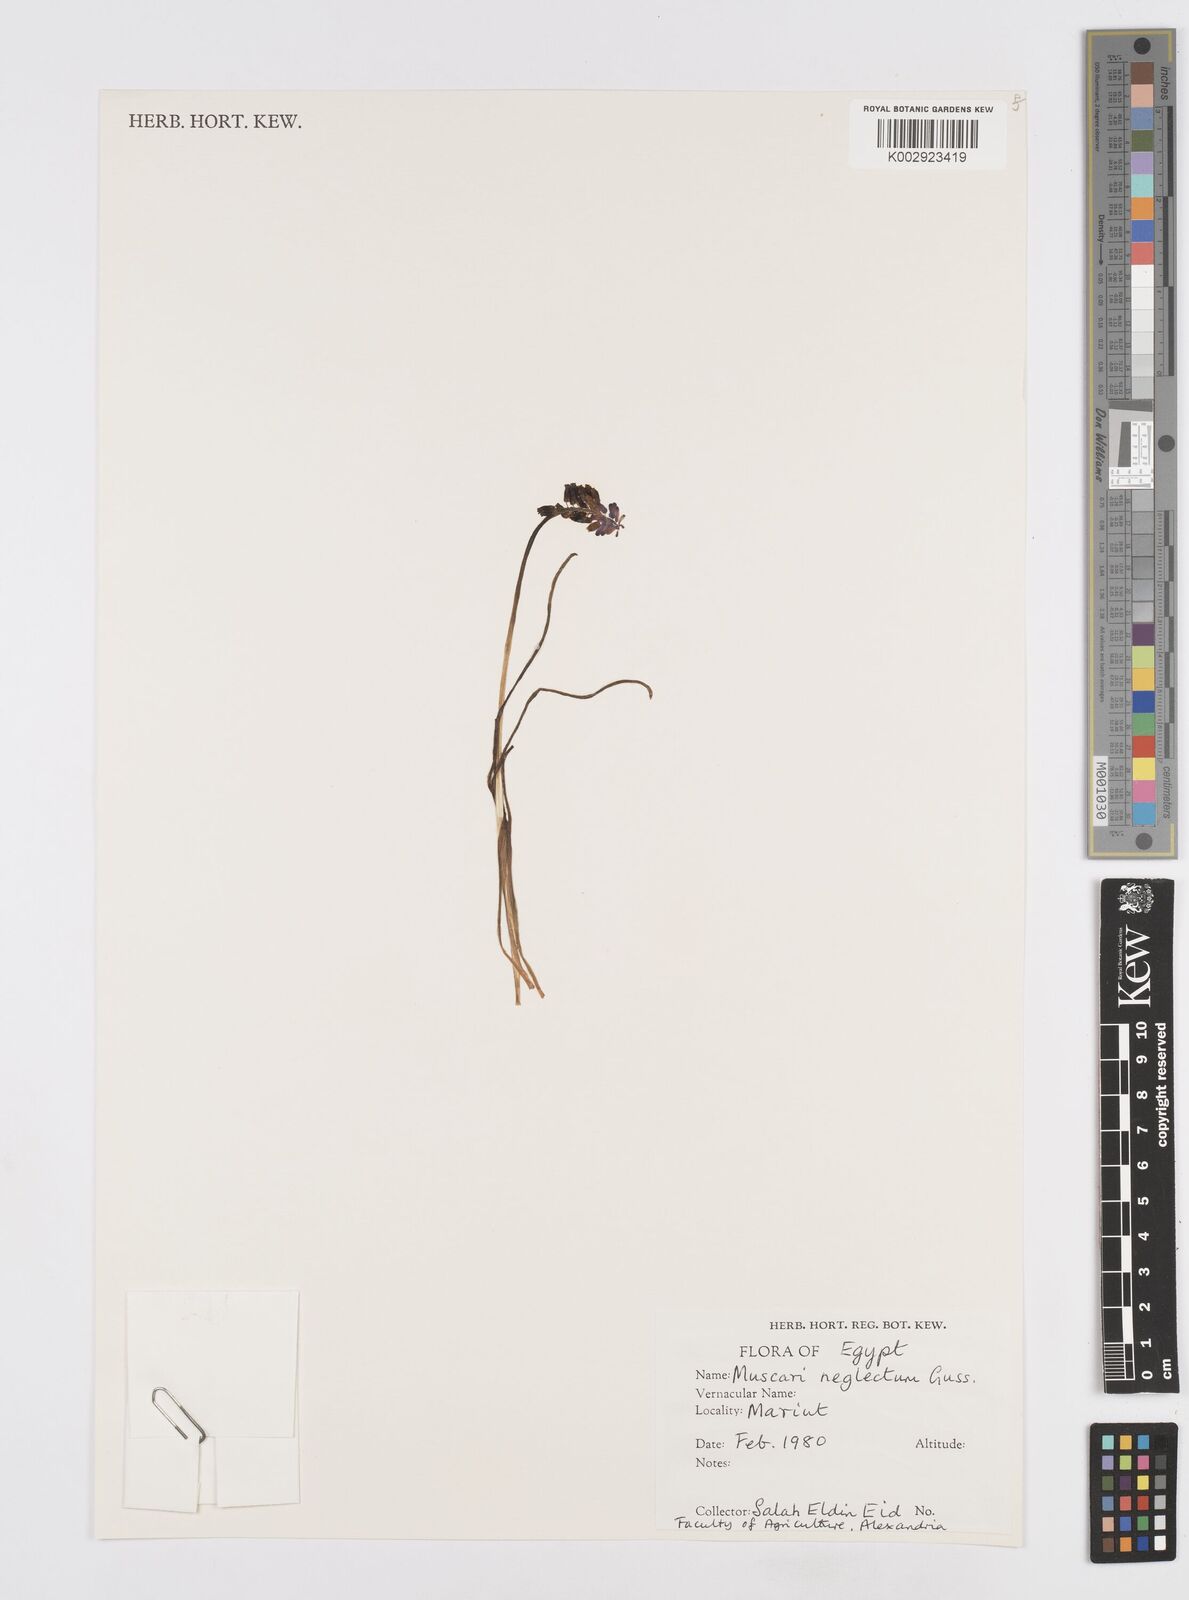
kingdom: Plantae
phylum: Tracheophyta
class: Liliopsida
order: Asparagales
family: Asparagaceae
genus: Muscari
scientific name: Muscari neglectum
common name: Grape-hyacinth
